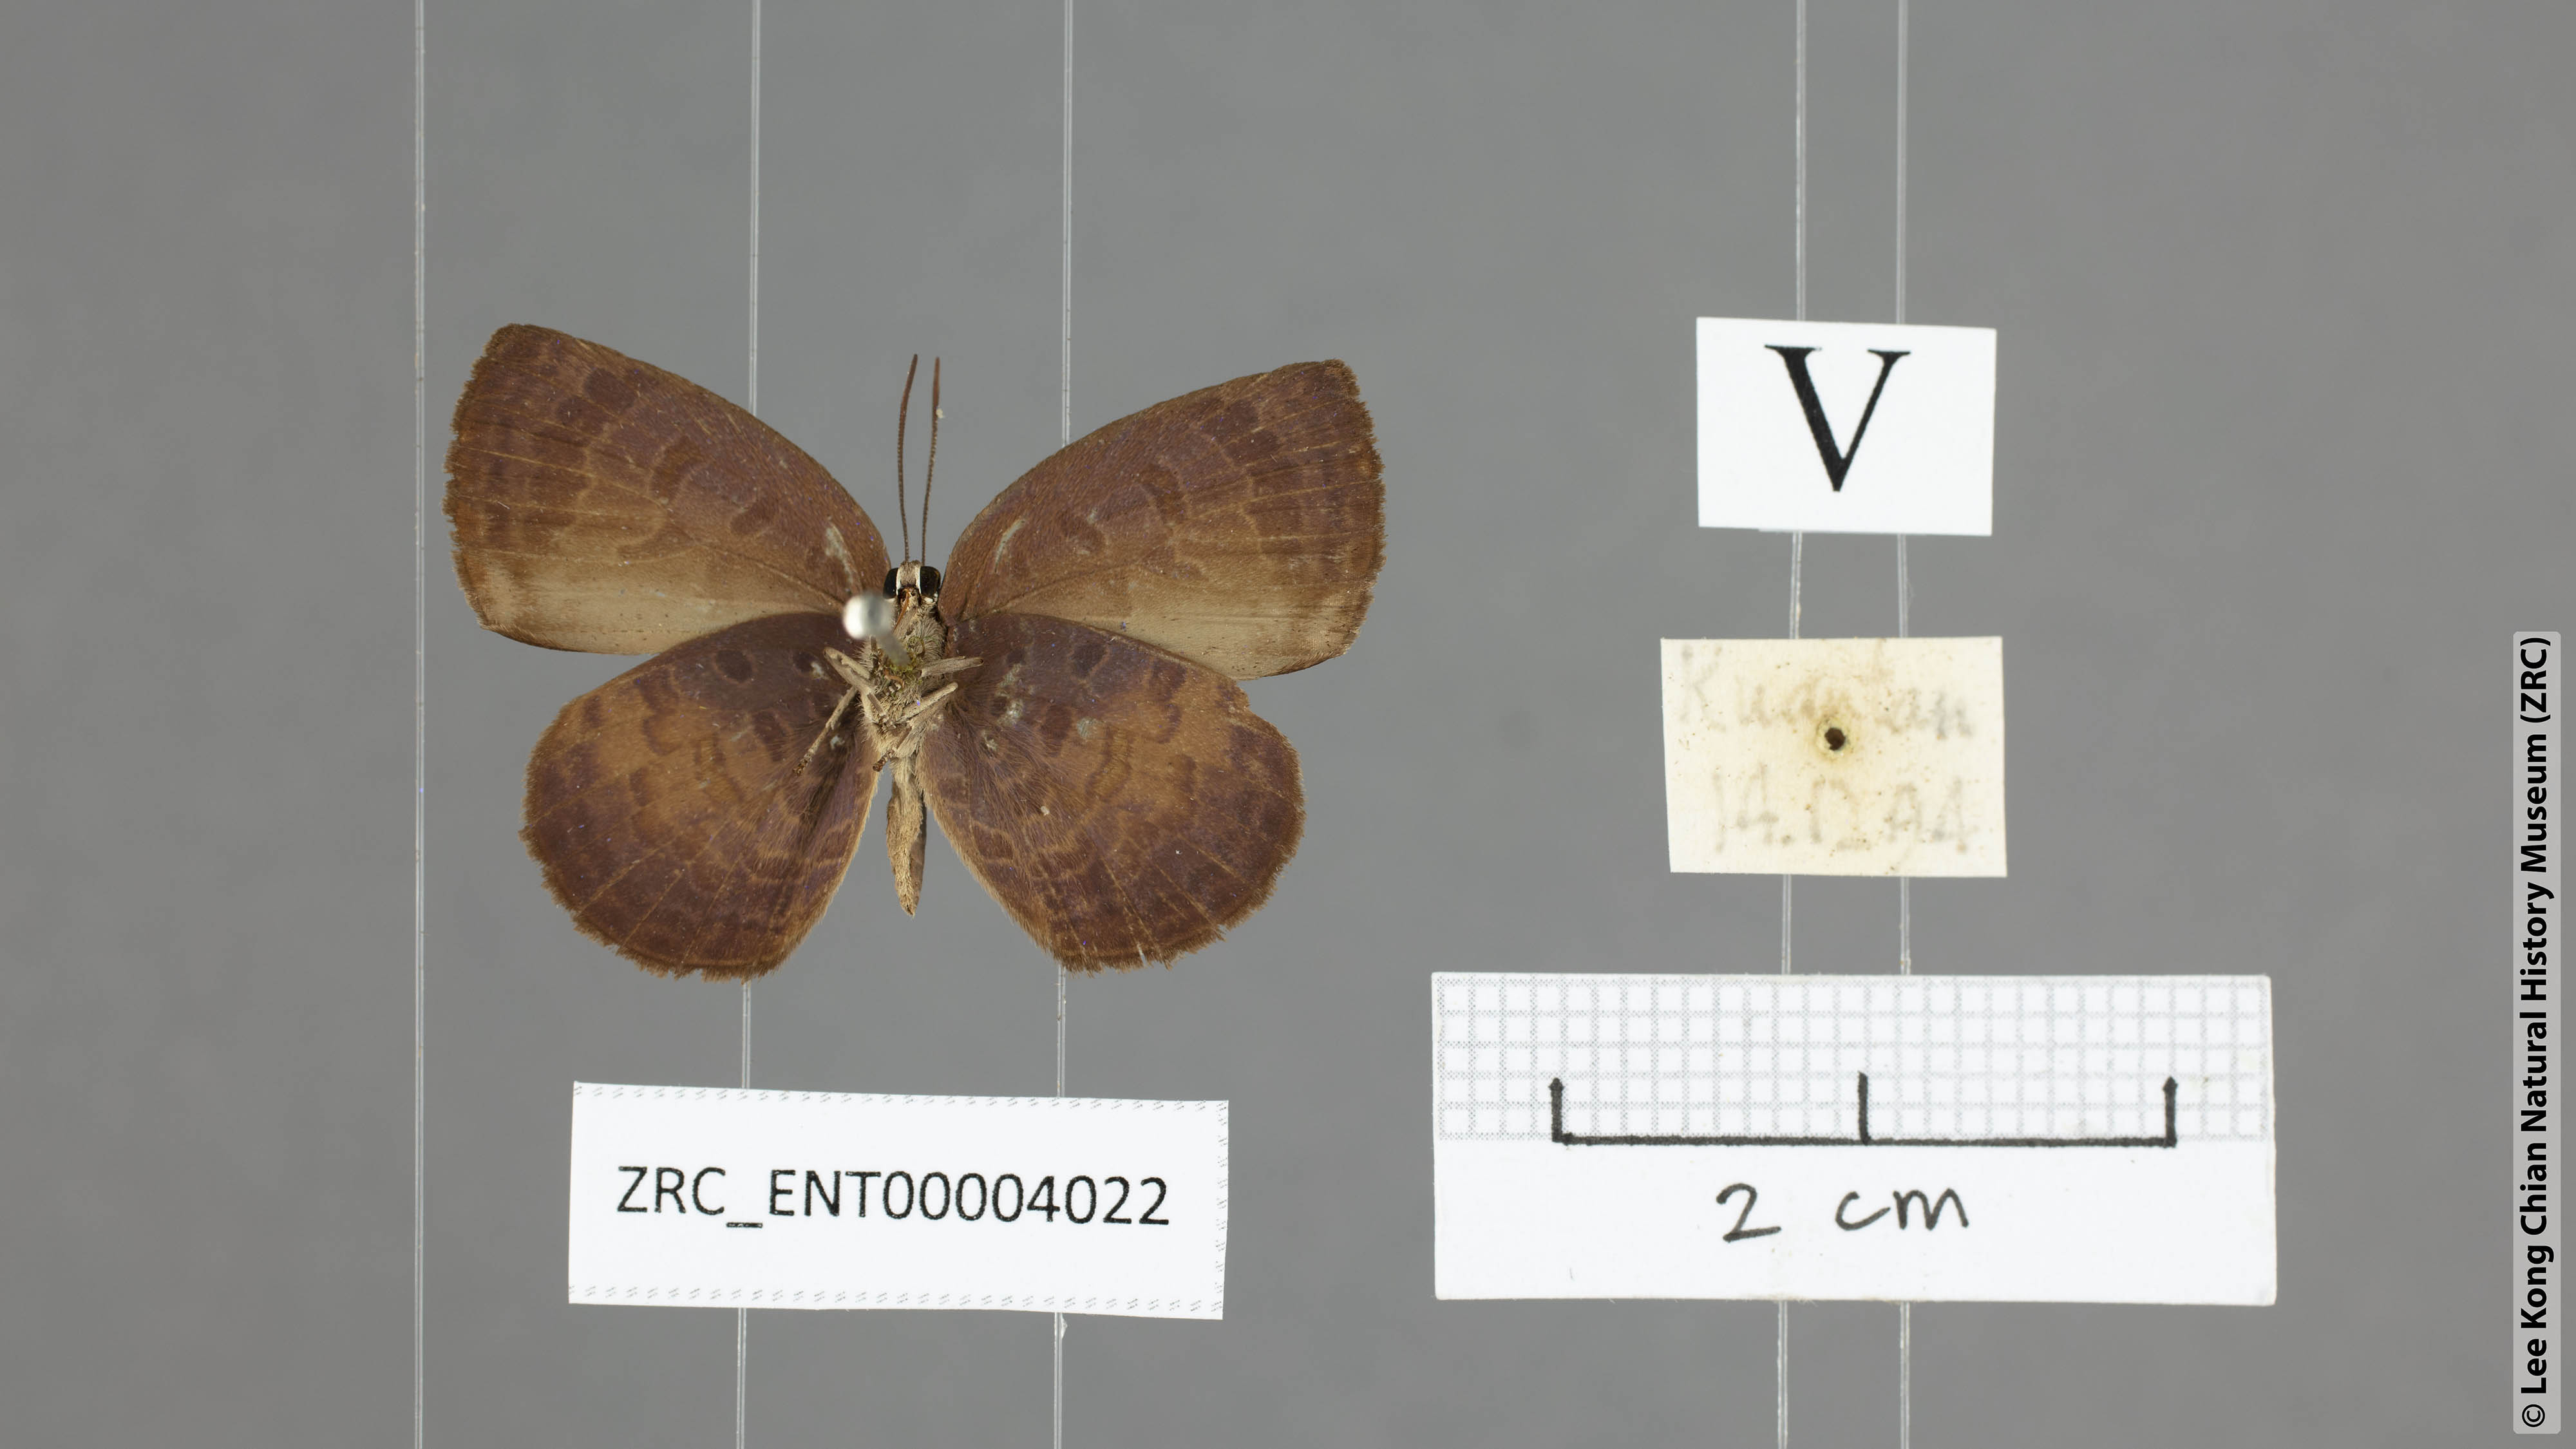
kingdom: Animalia
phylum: Arthropoda
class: Insecta
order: Lepidoptera
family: Lycaenidae
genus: Arhopala
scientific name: Arhopala perimuta
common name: Yellowdisc oakblue
